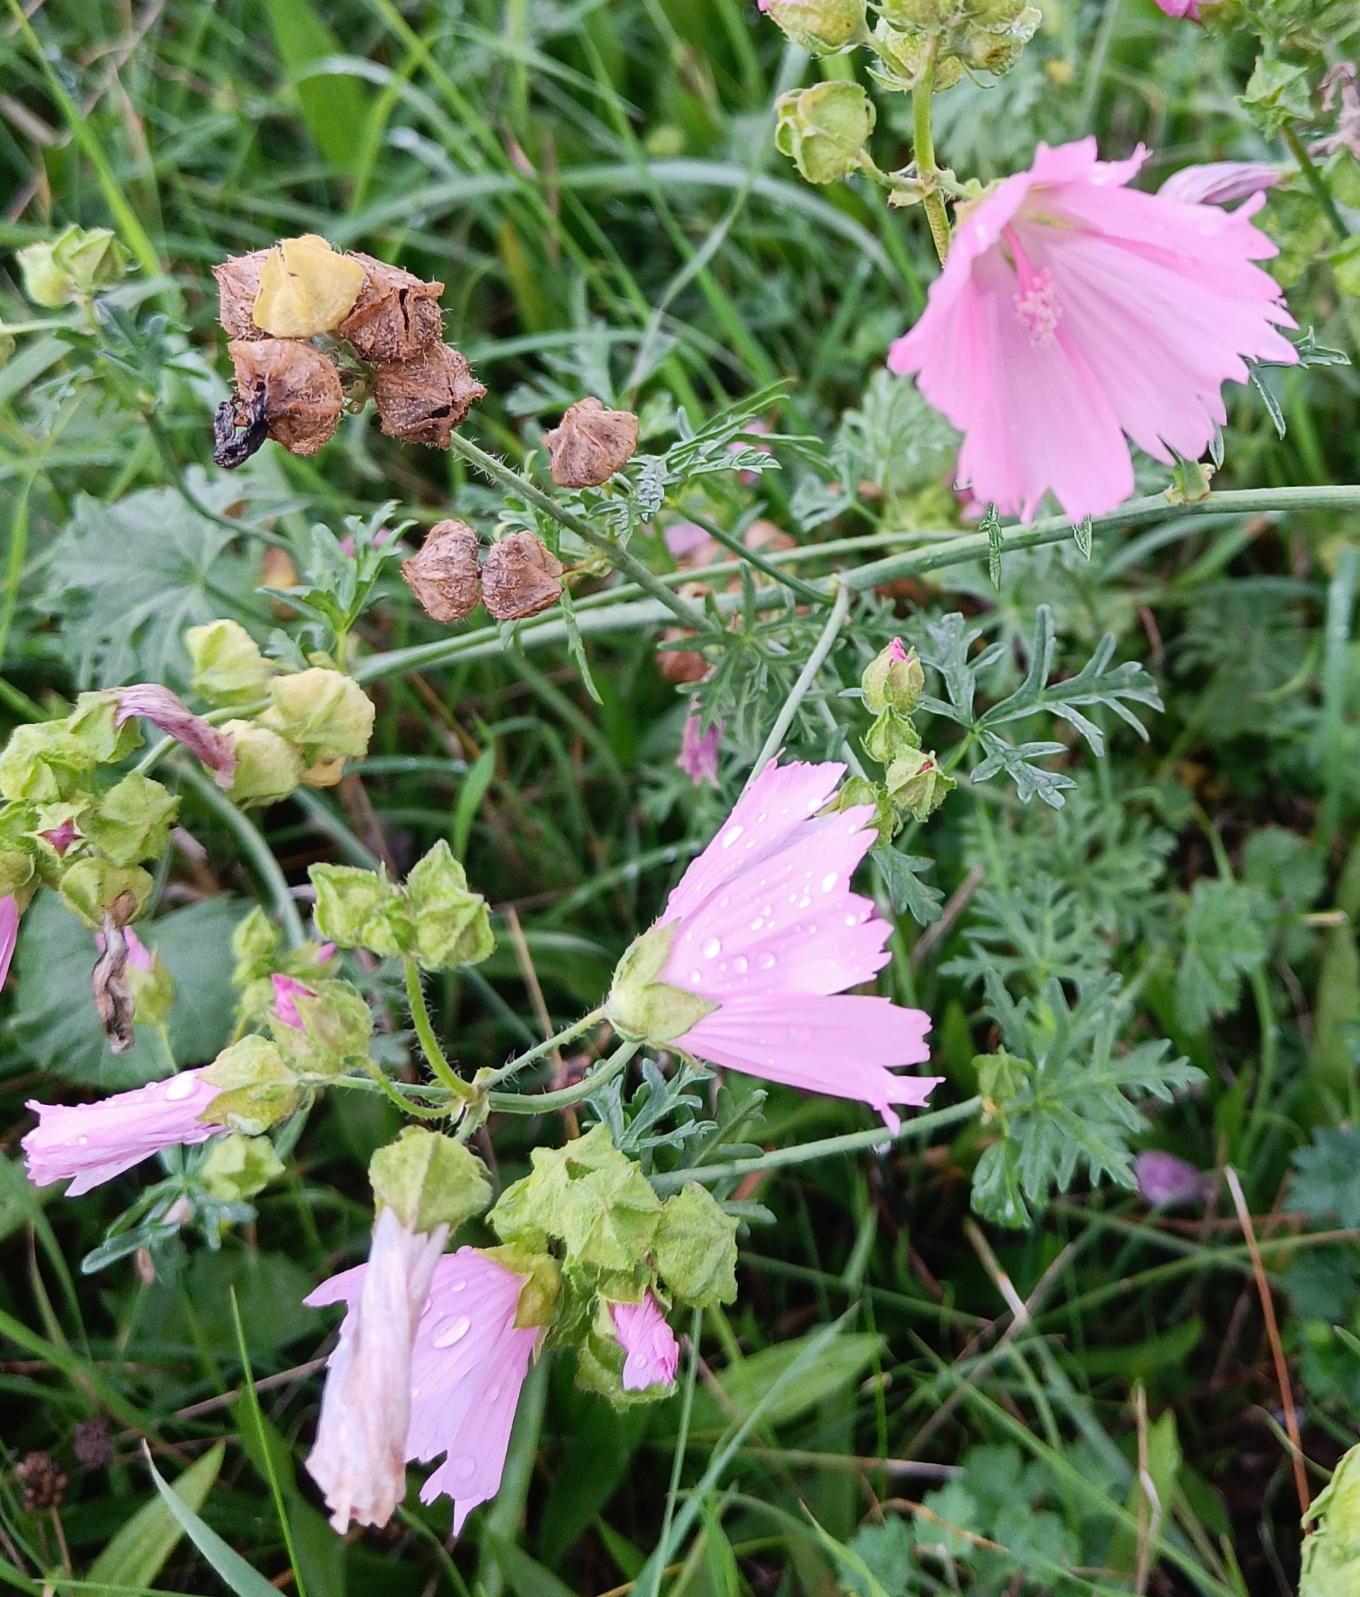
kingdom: Plantae
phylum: Tracheophyta
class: Magnoliopsida
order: Malvales
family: Malvaceae
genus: Malva
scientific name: Malva moschata
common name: Moskus-katost
